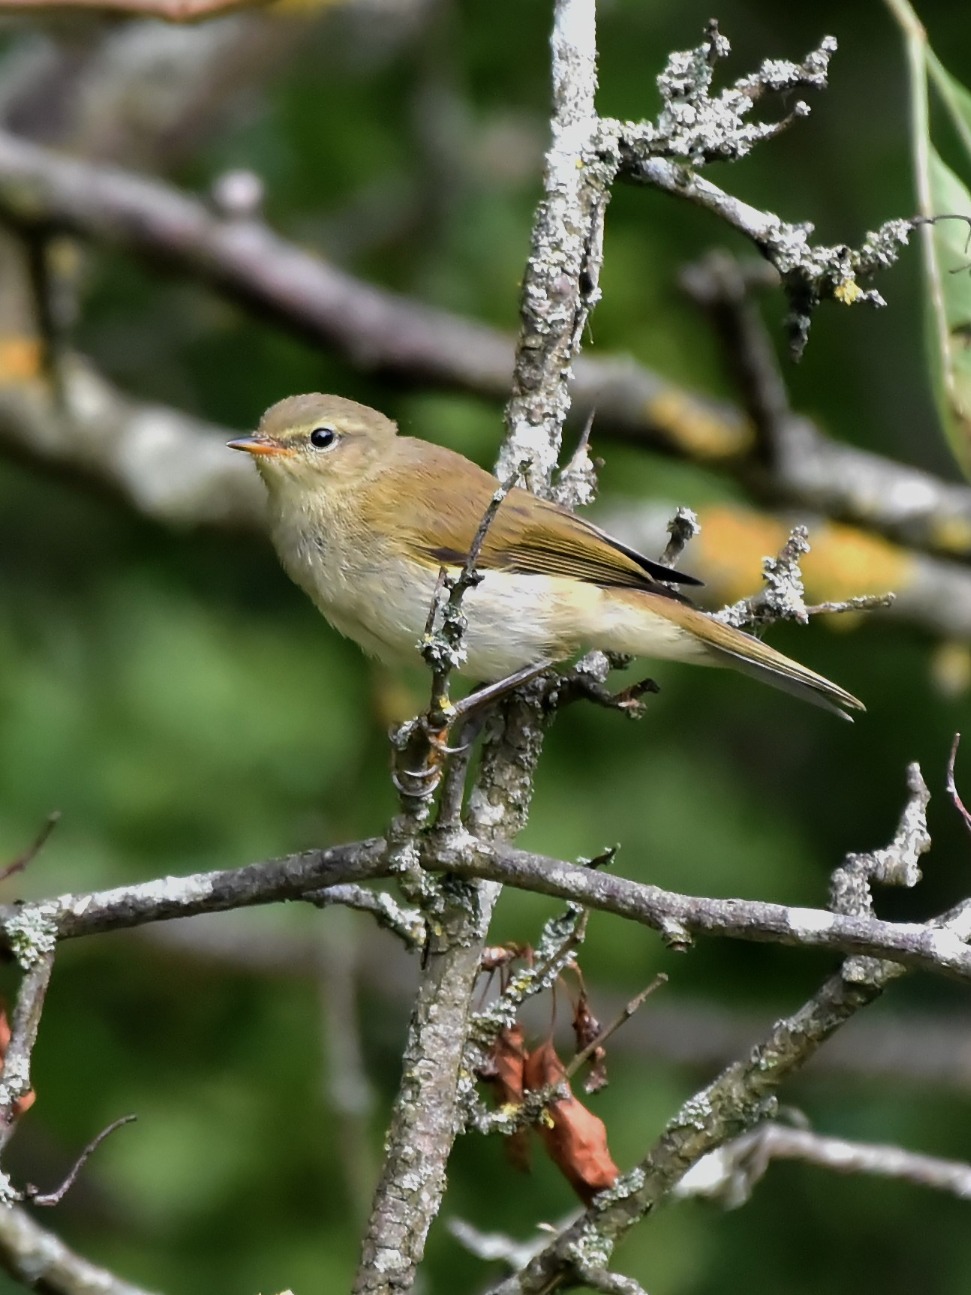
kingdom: Animalia
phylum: Chordata
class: Aves
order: Passeriformes
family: Phylloscopidae
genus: Phylloscopus
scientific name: Phylloscopus collybita
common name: Gransanger
